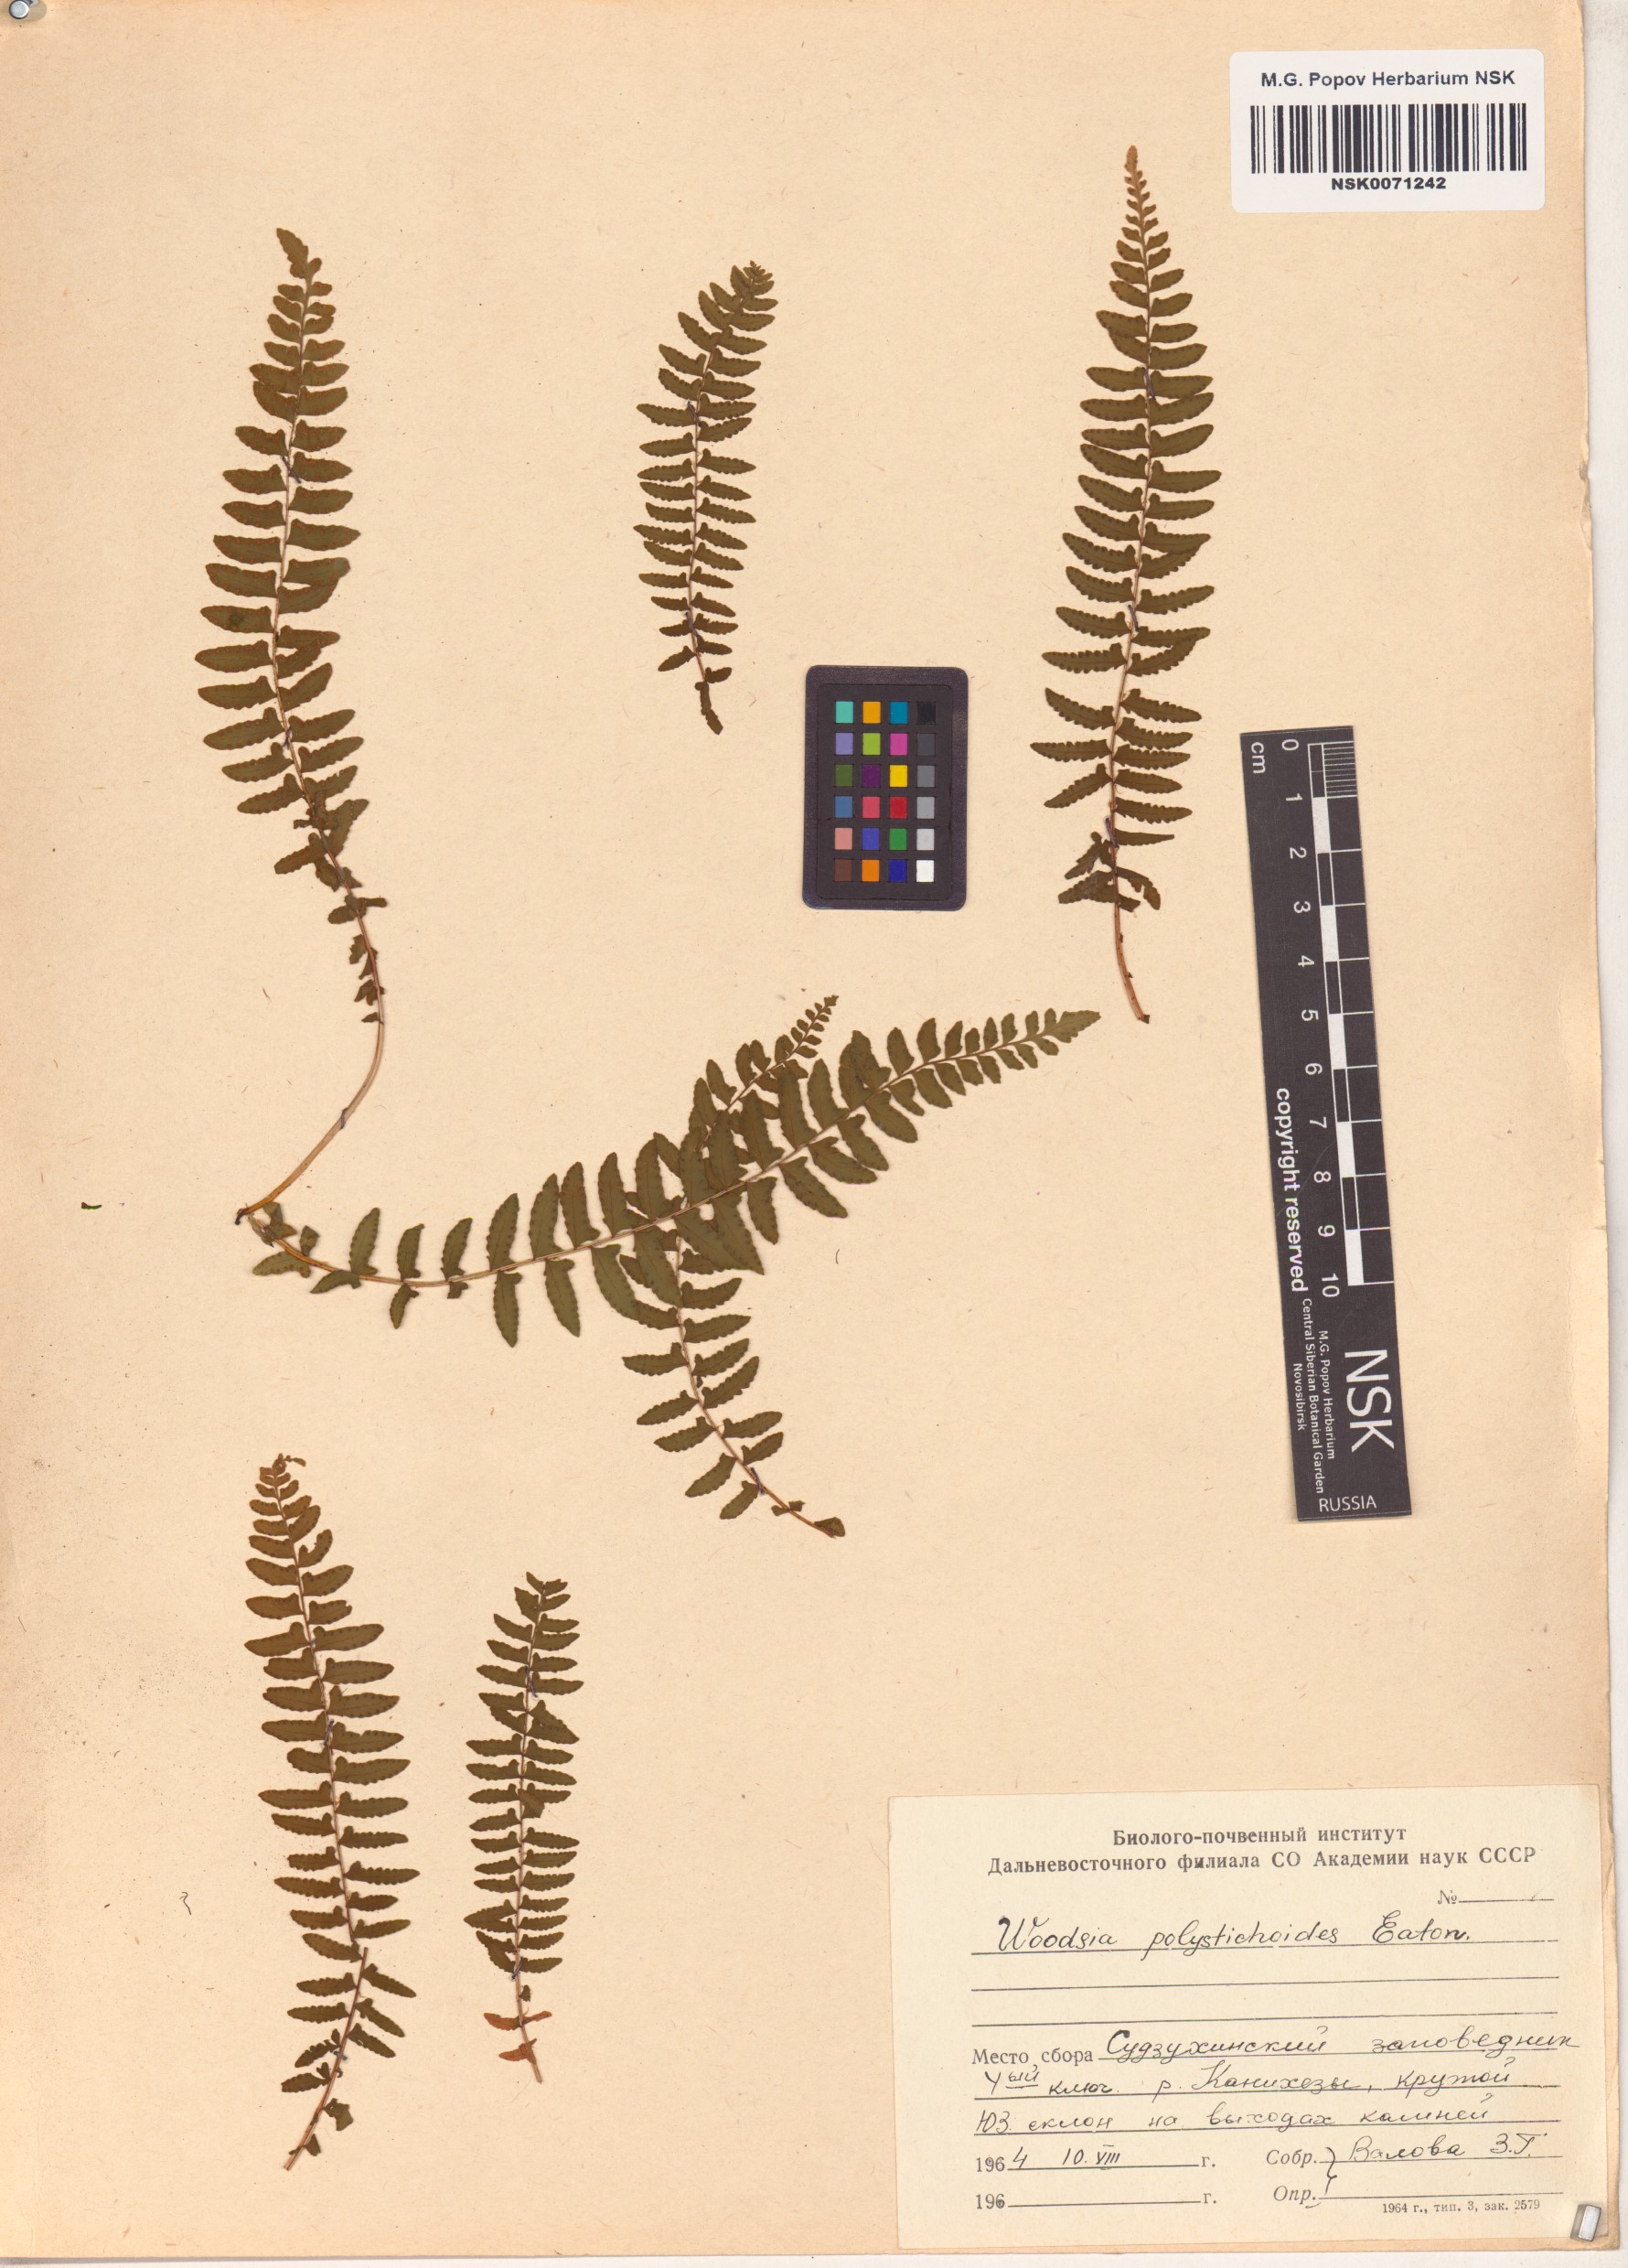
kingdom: Plantae
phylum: Tracheophyta
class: Polypodiopsida
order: Polypodiales
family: Woodsiaceae
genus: Woodsia
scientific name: Woodsia polystichoides
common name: Holly fern woodsia
